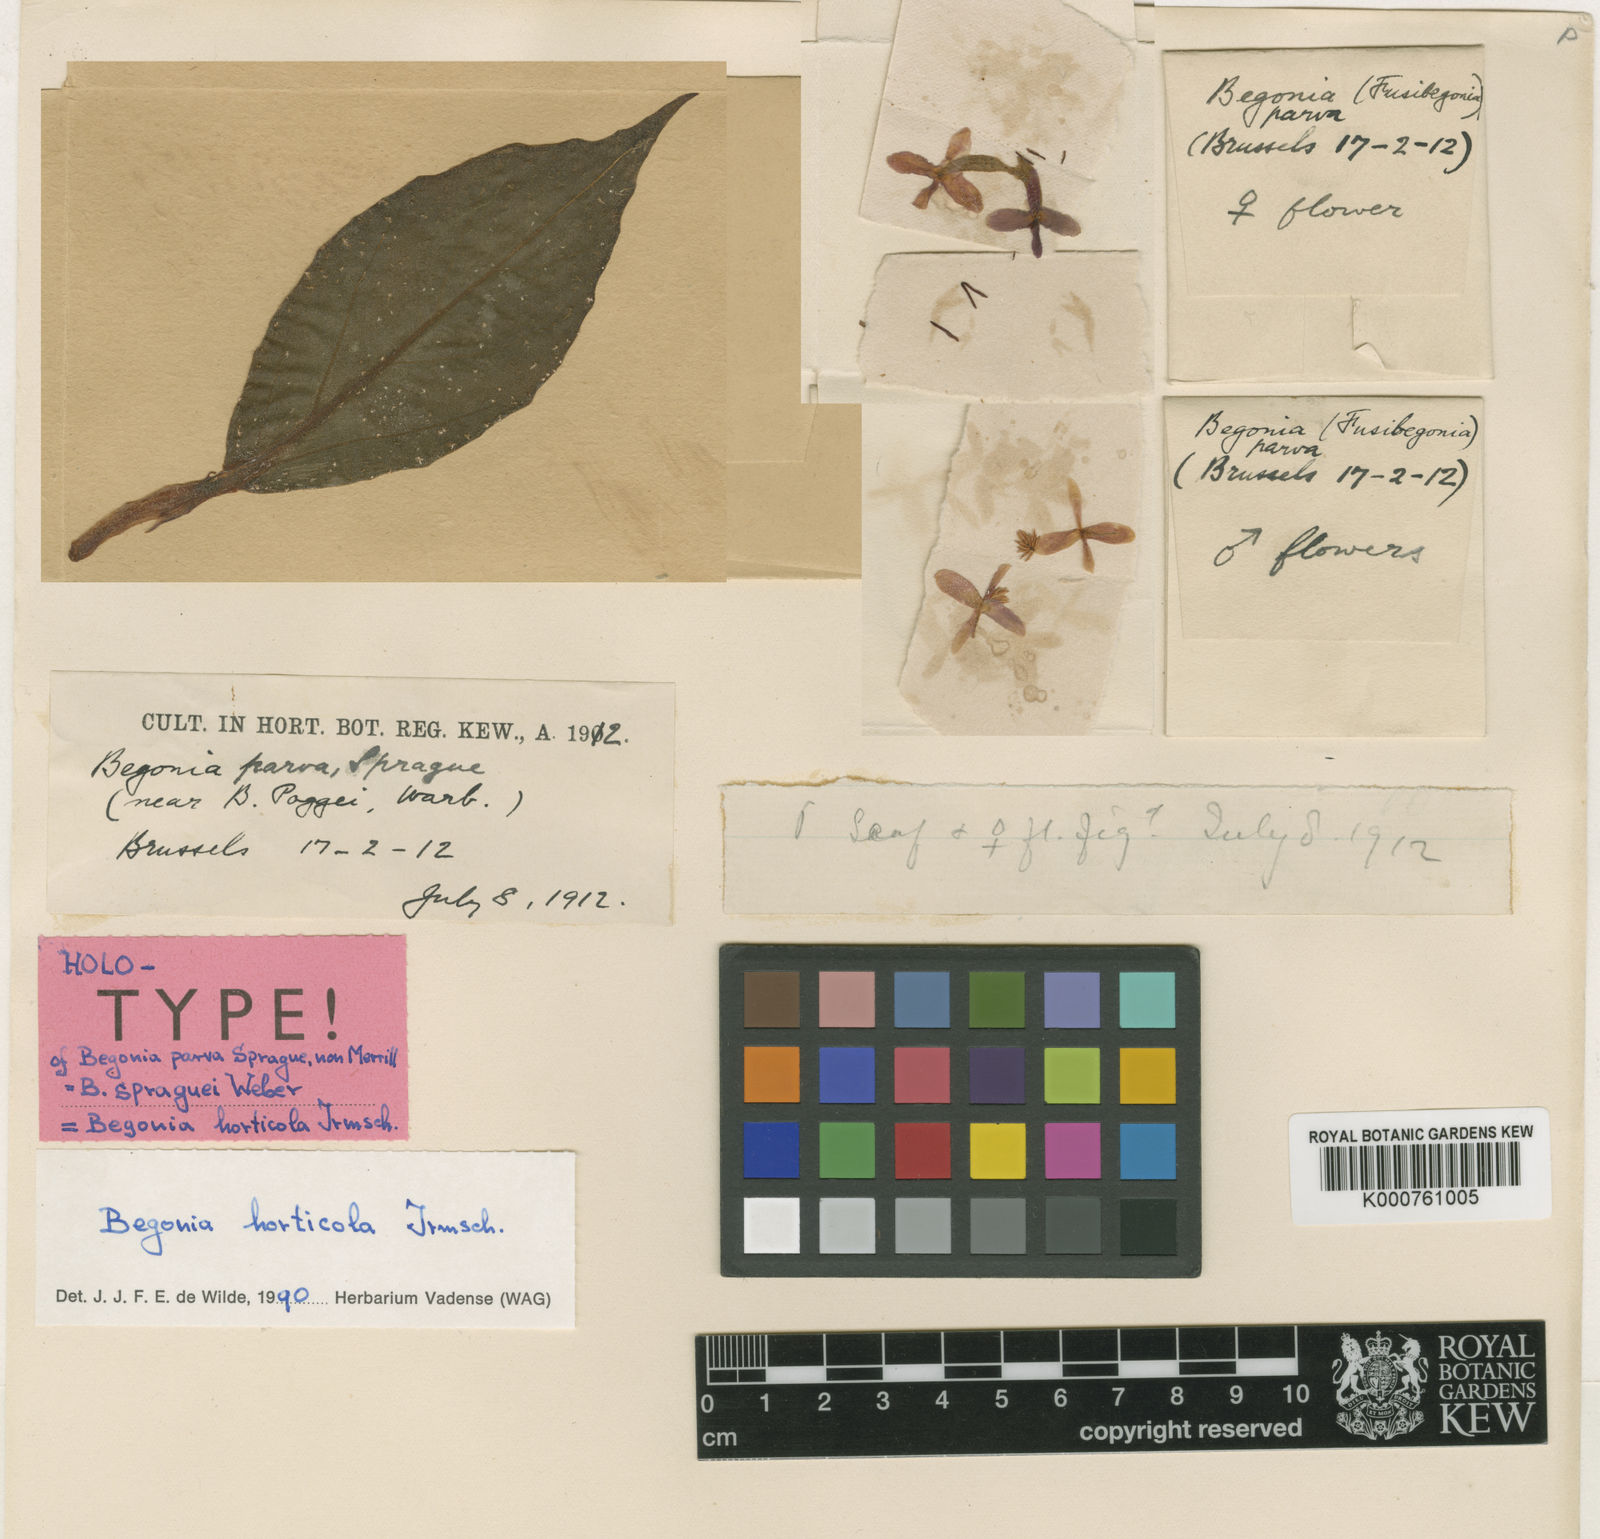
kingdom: Plantae
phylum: Tracheophyta
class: Magnoliopsida
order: Cucurbitales
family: Begoniaceae
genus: Begonia
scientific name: Begonia horticola
